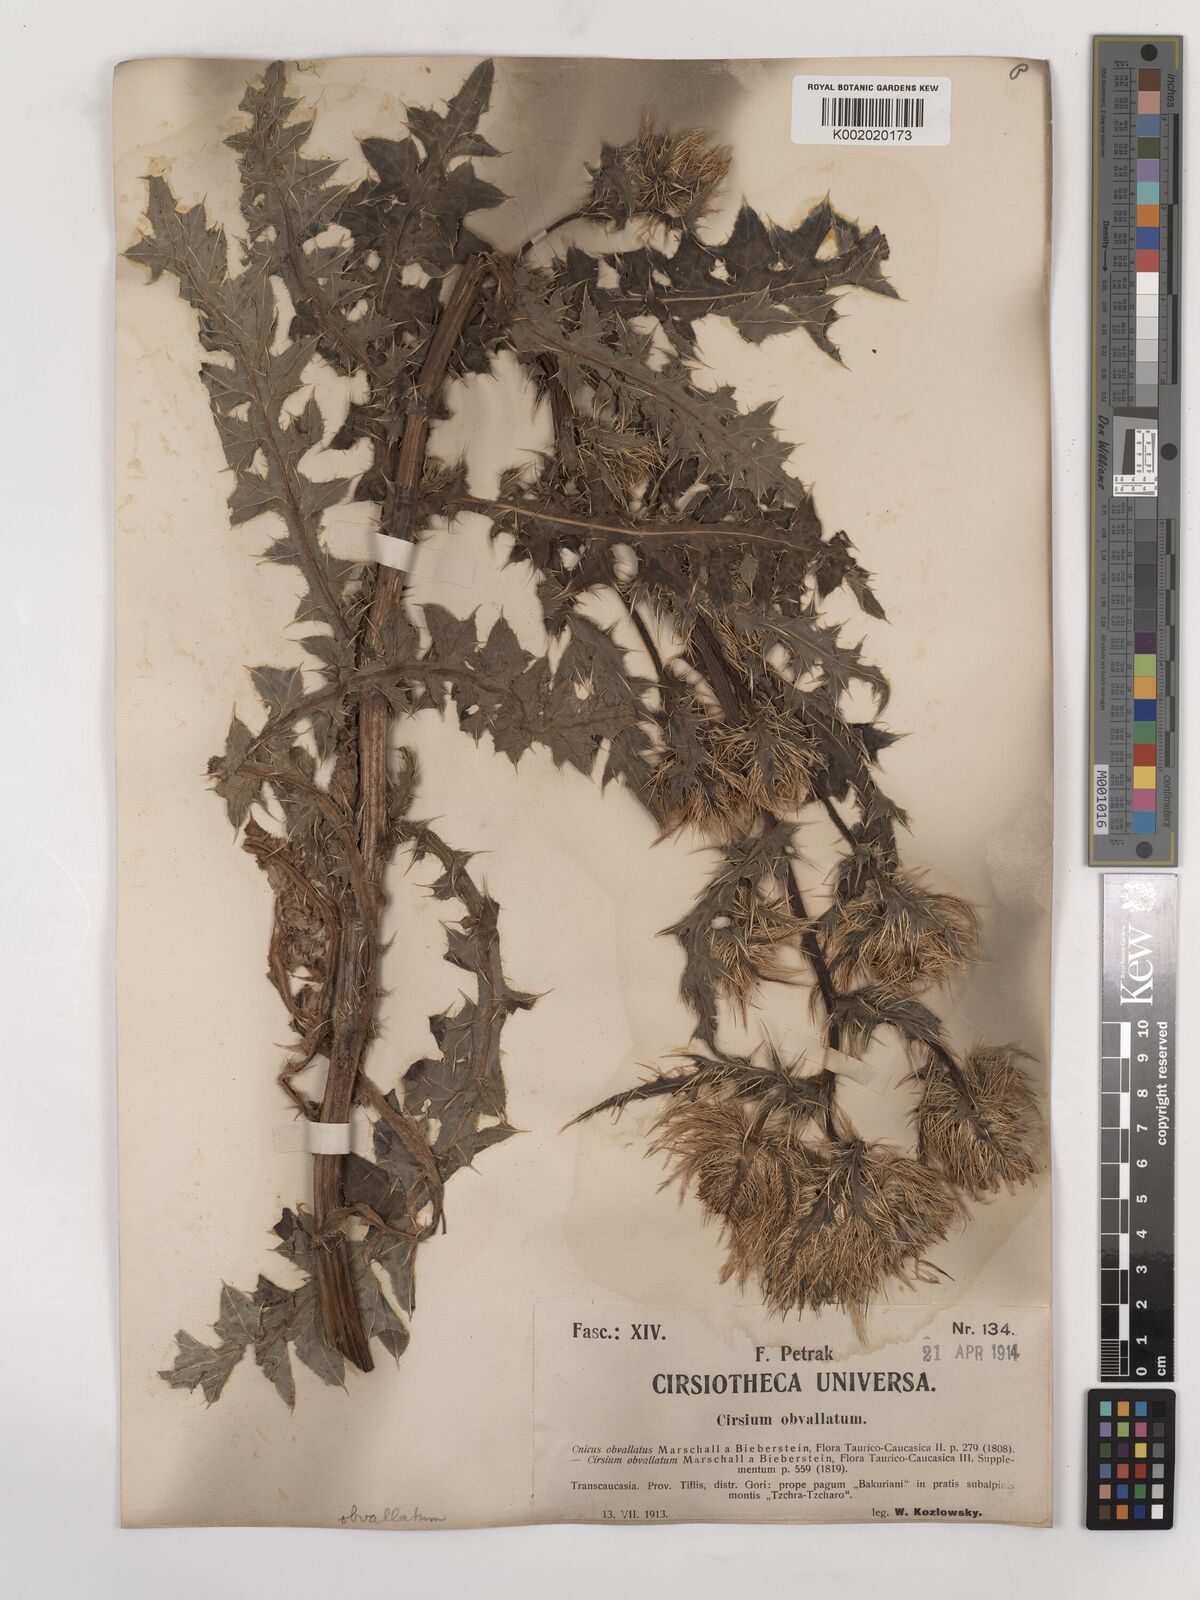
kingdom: Plantae
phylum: Tracheophyta
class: Magnoliopsida
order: Asterales
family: Asteraceae
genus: Cirsium
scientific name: Cirsium obvallatum
